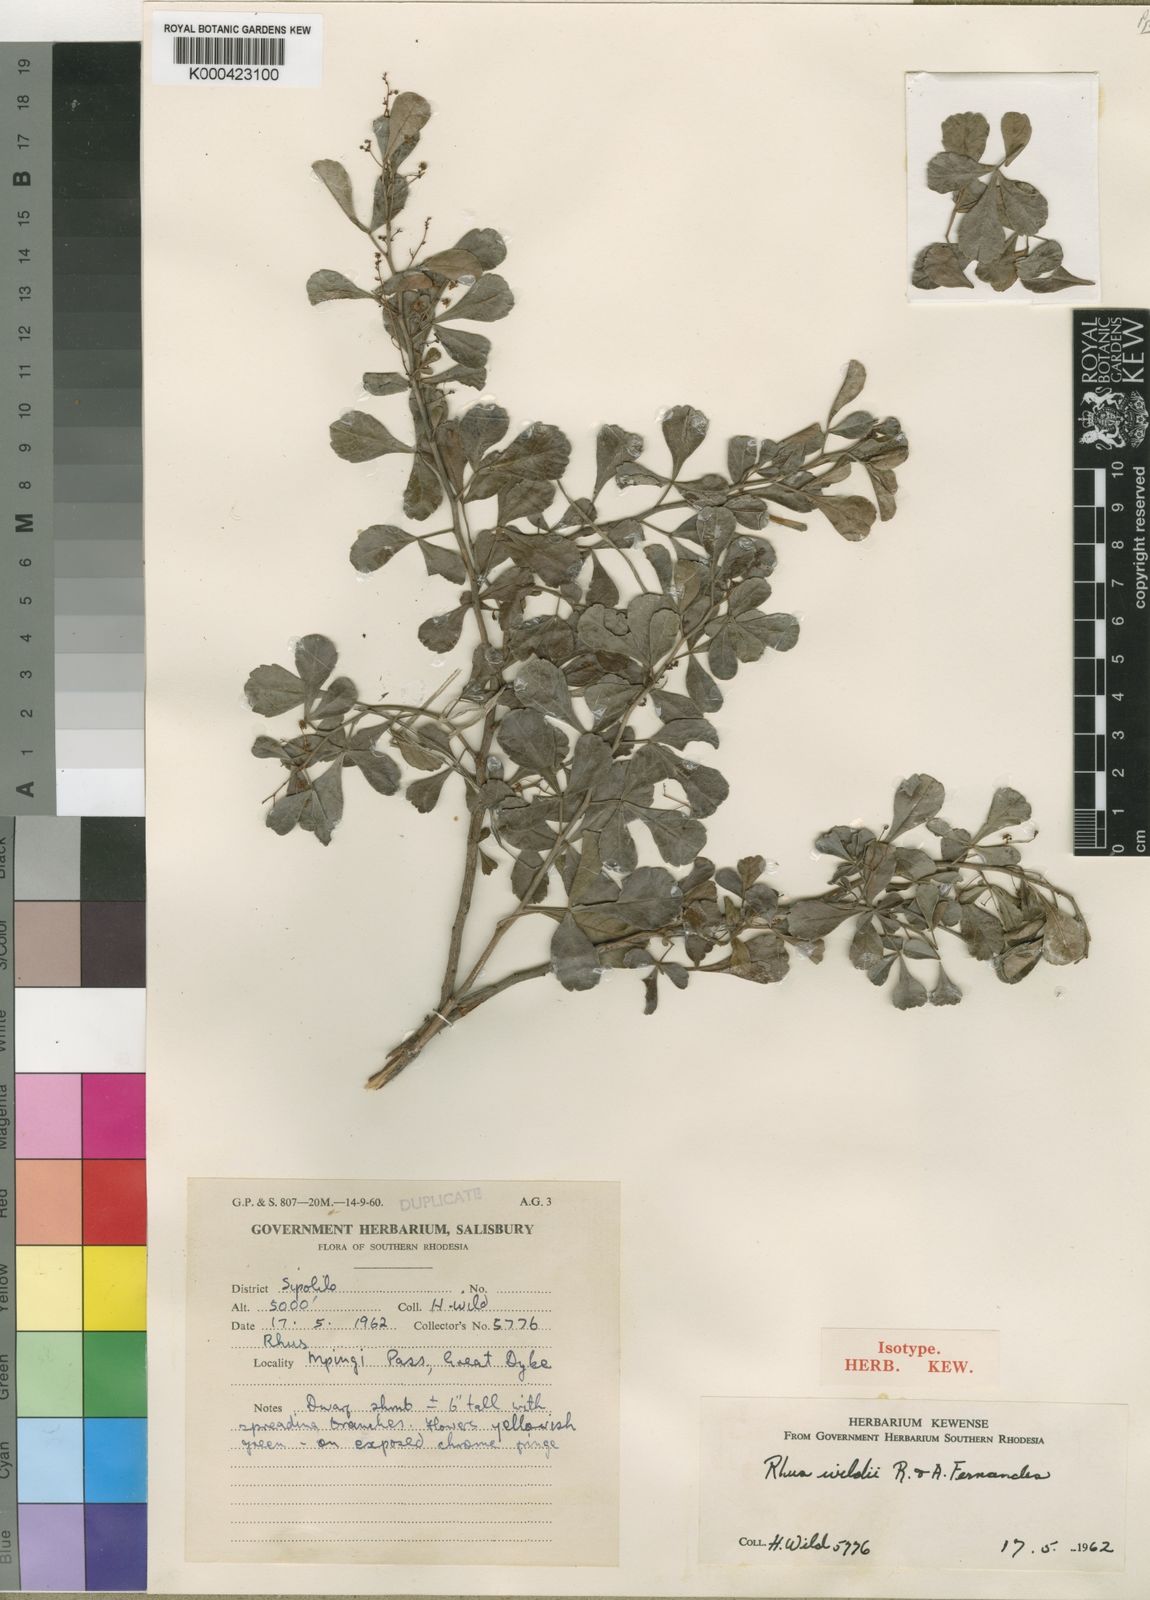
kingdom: Plantae
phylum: Tracheophyta
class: Magnoliopsida
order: Sapindales
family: Anacardiaceae
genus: Searsia
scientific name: Searsia wildii
